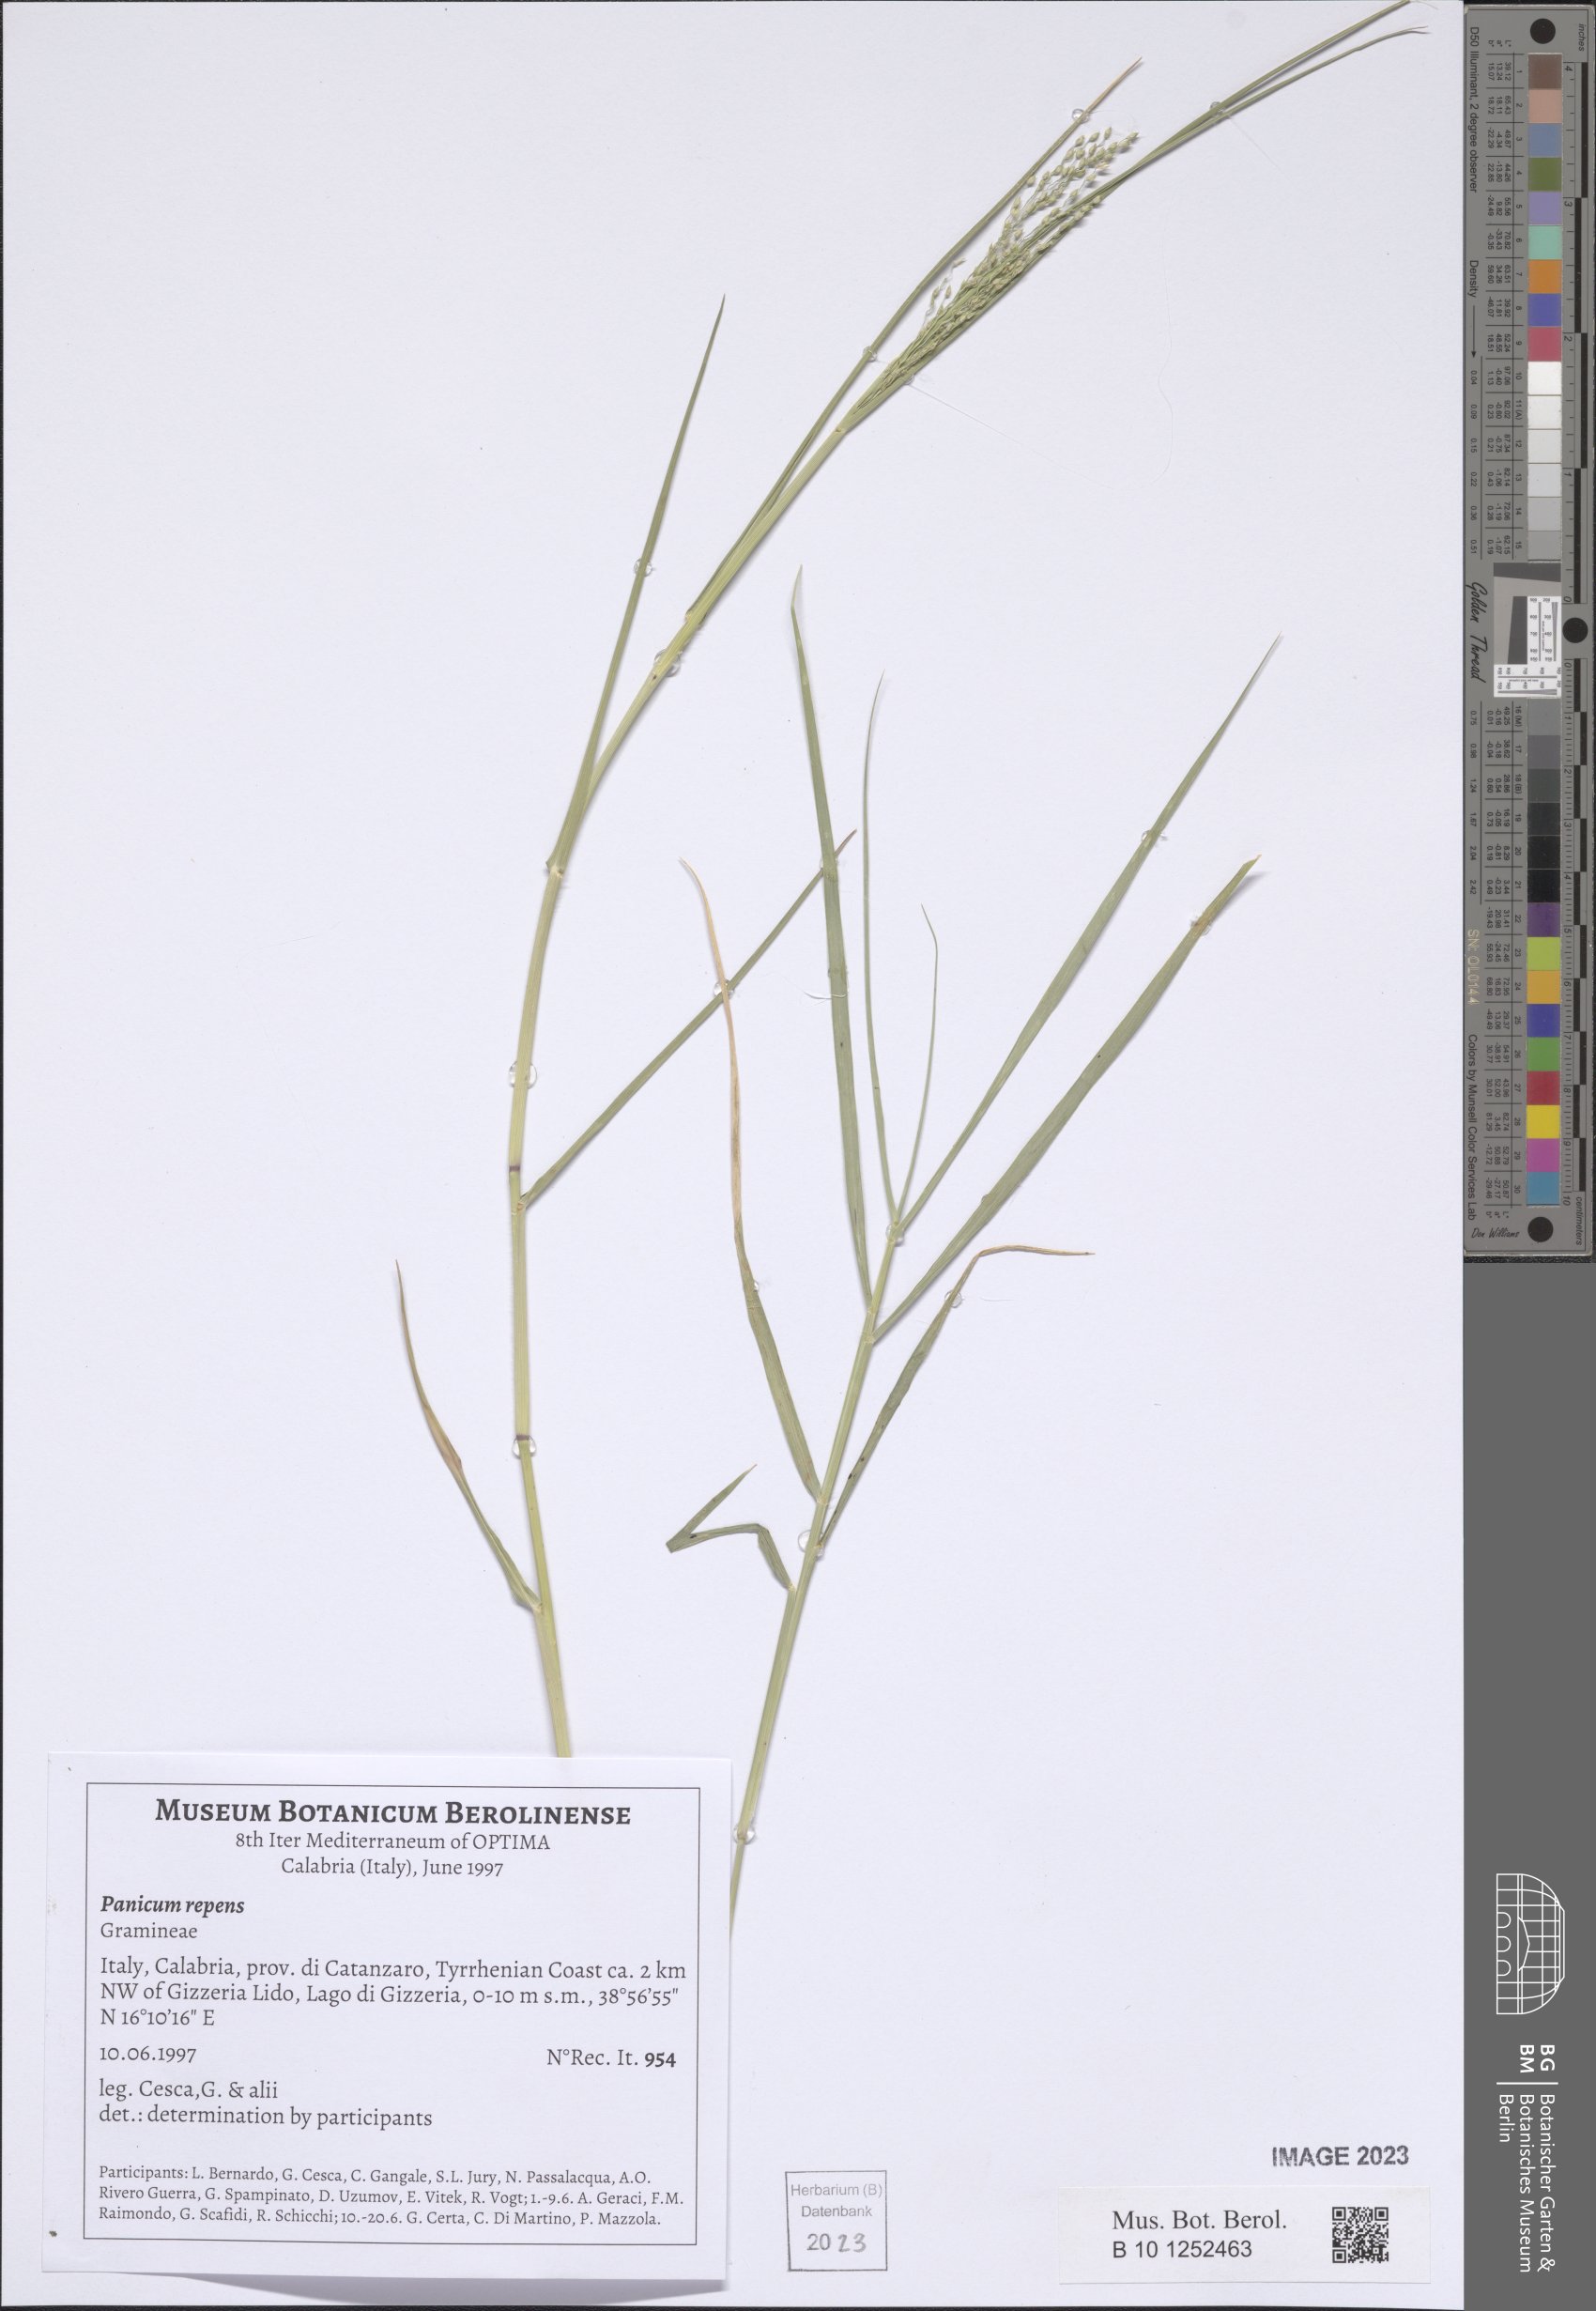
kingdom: Plantae
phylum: Tracheophyta
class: Liliopsida
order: Poales
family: Poaceae
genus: Panicum
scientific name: Panicum repens
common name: Torpedo grass
